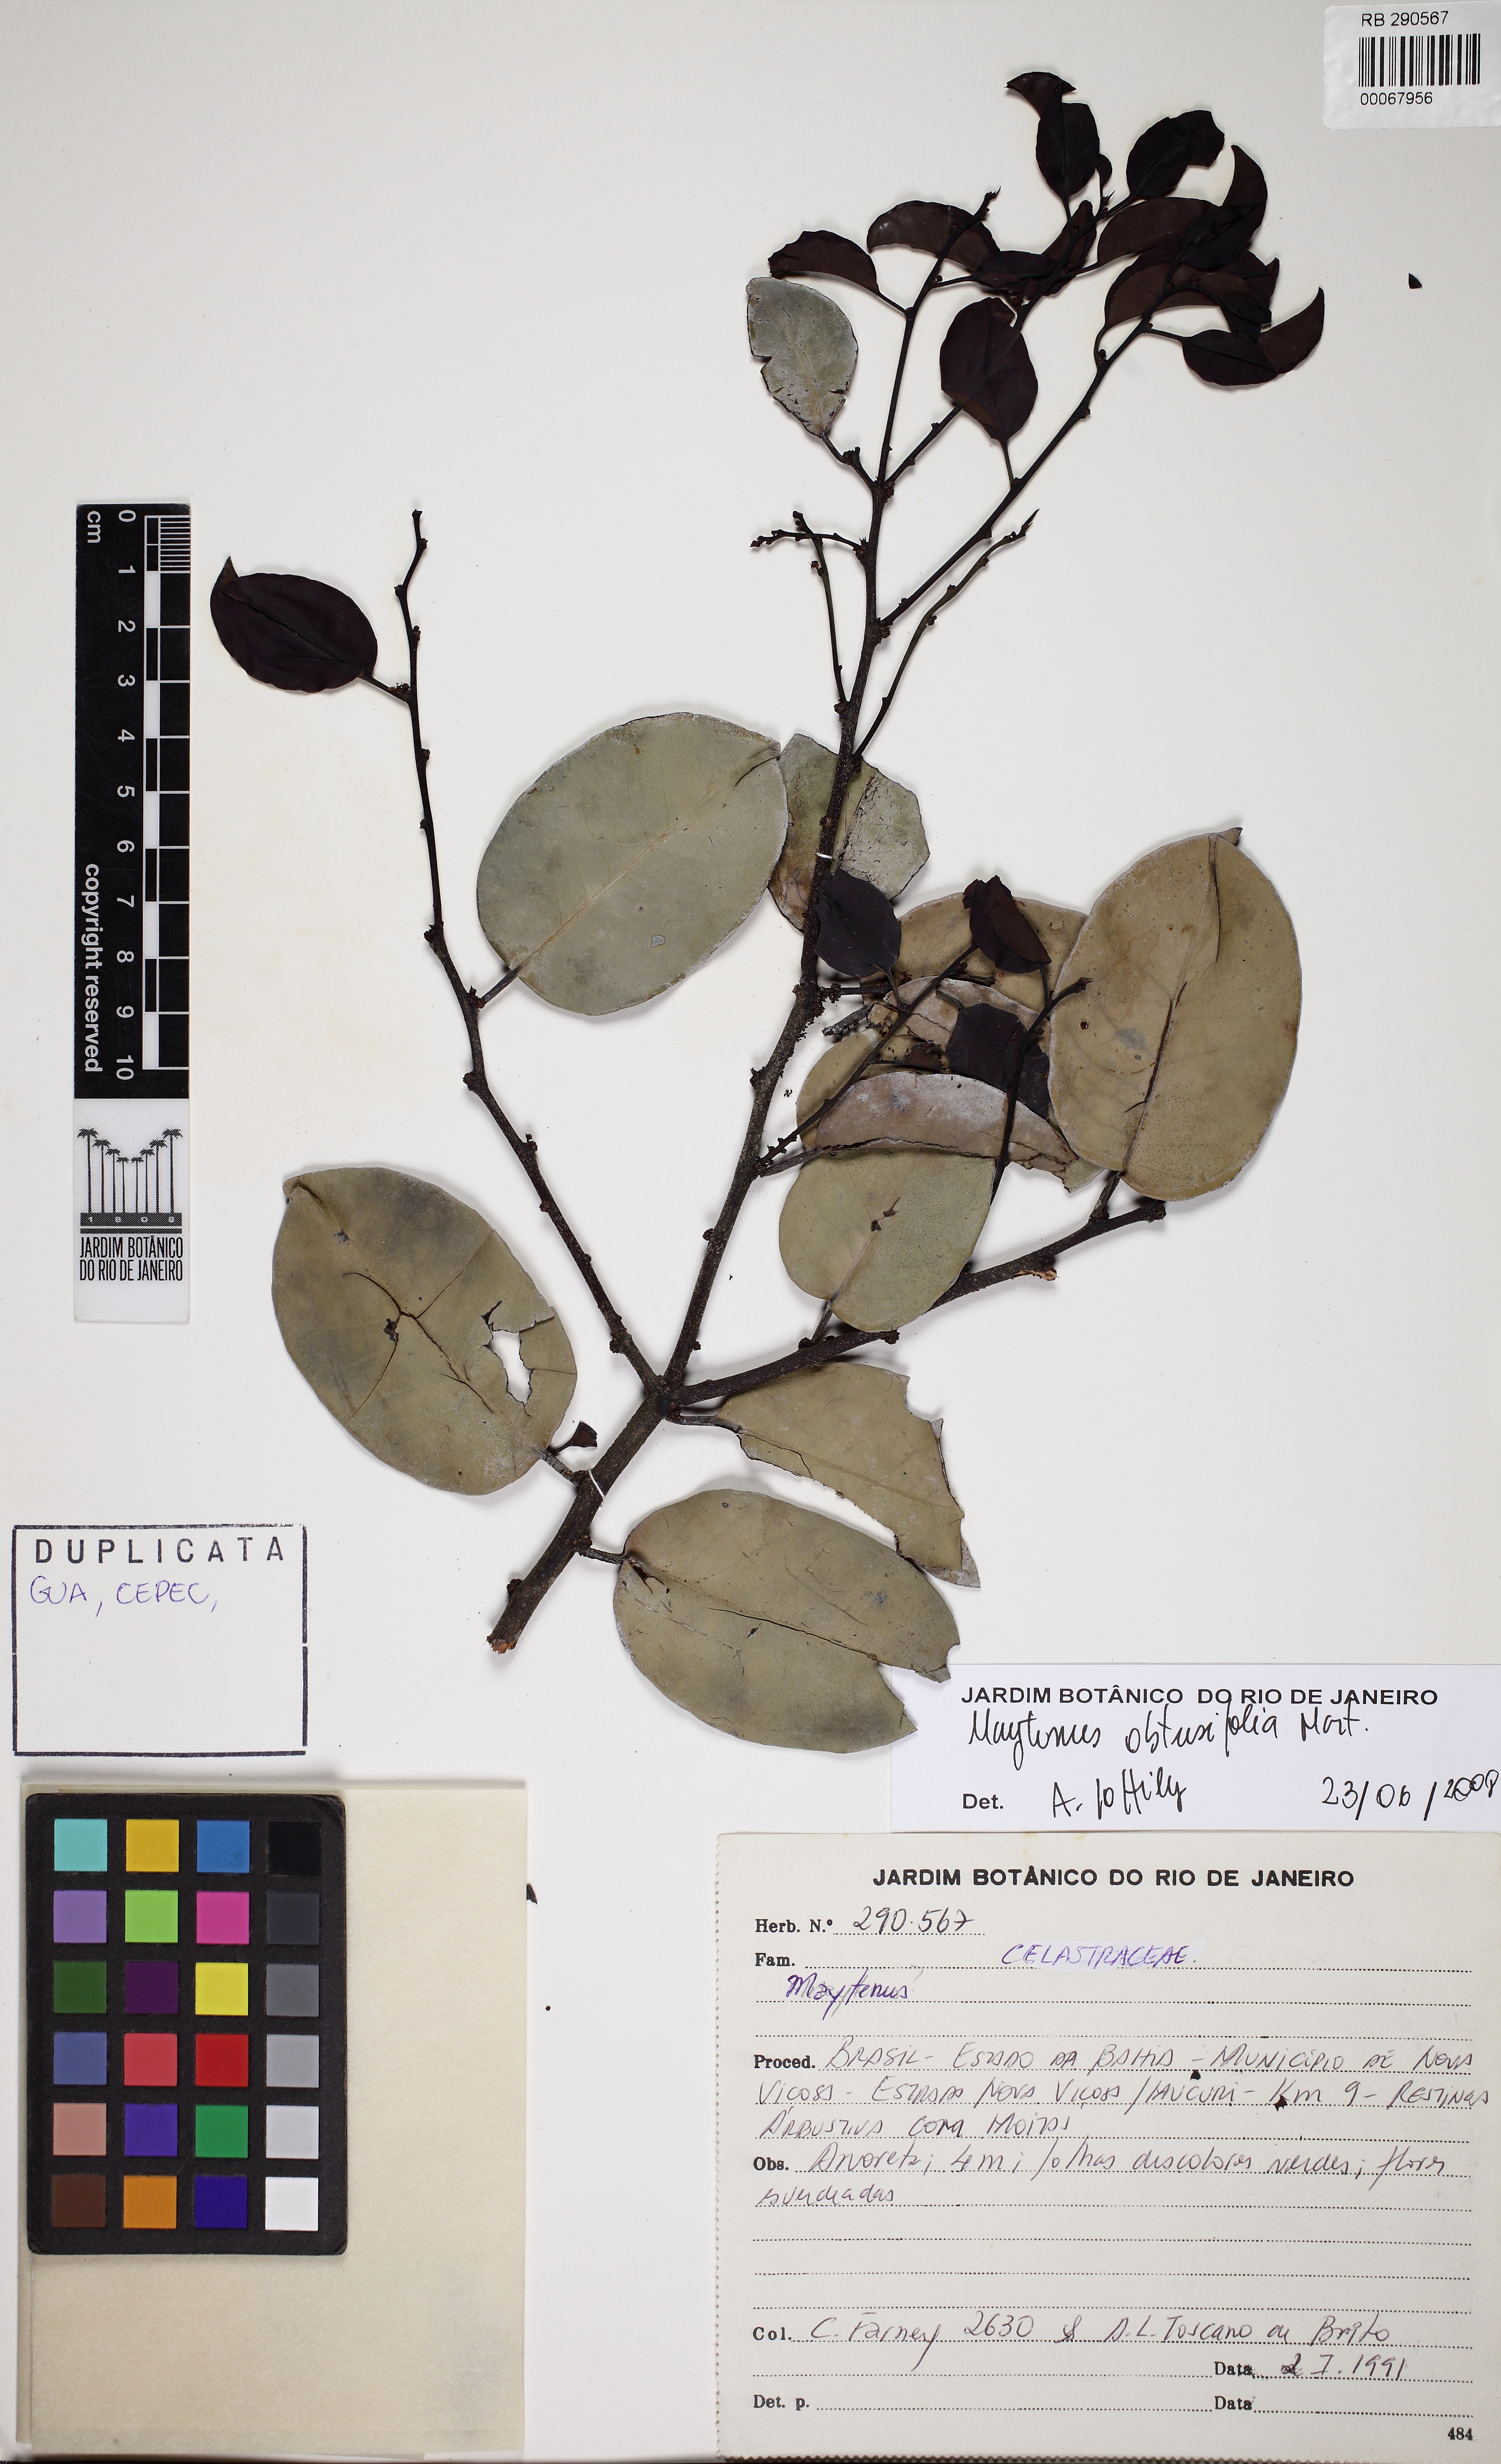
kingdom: Plantae
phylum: Tracheophyta
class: Magnoliopsida
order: Celastrales
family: Celastraceae
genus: Monteverdia
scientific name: Monteverdia distichophylla
